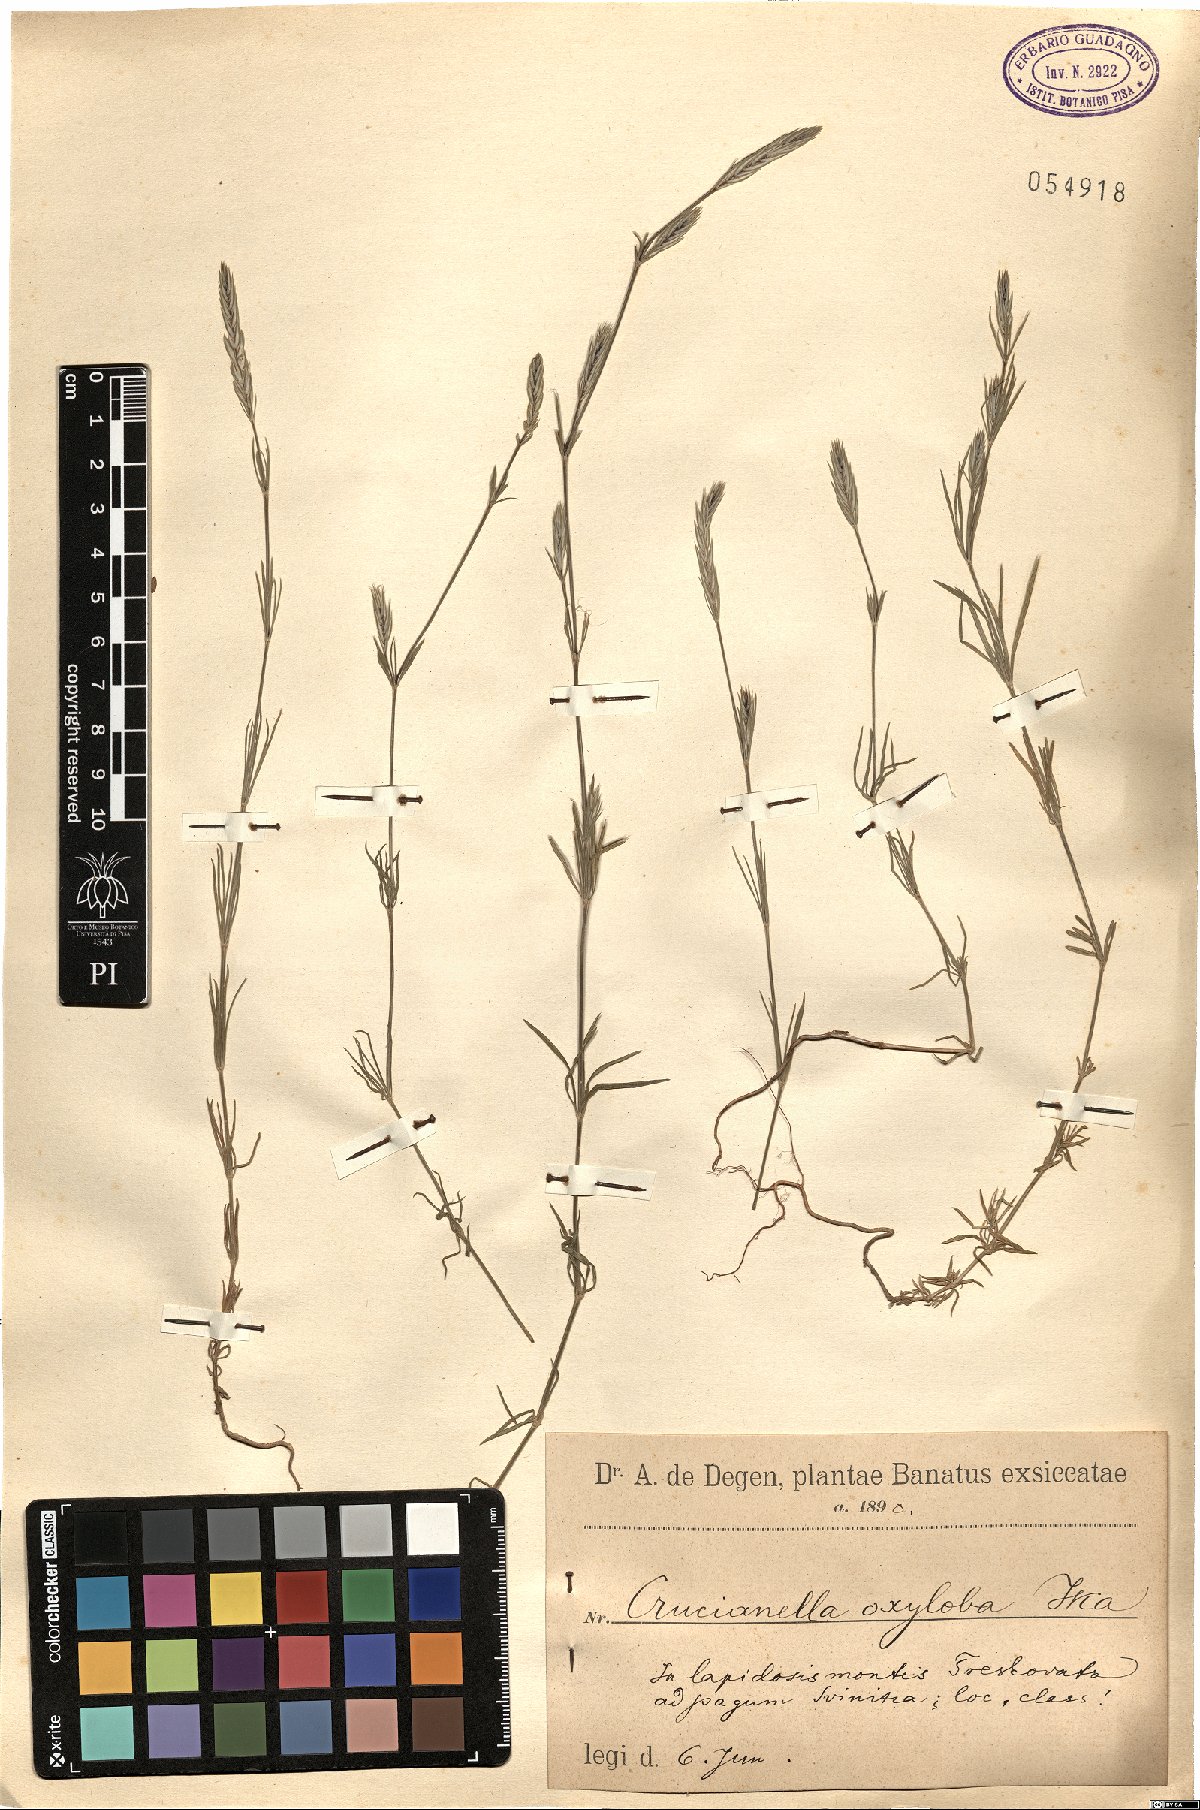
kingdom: Plantae
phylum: Tracheophyta
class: Magnoliopsida
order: Gentianales
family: Rubiaceae
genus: Crucianella
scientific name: Crucianella angustifolia
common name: Narrowleaf crucianella
